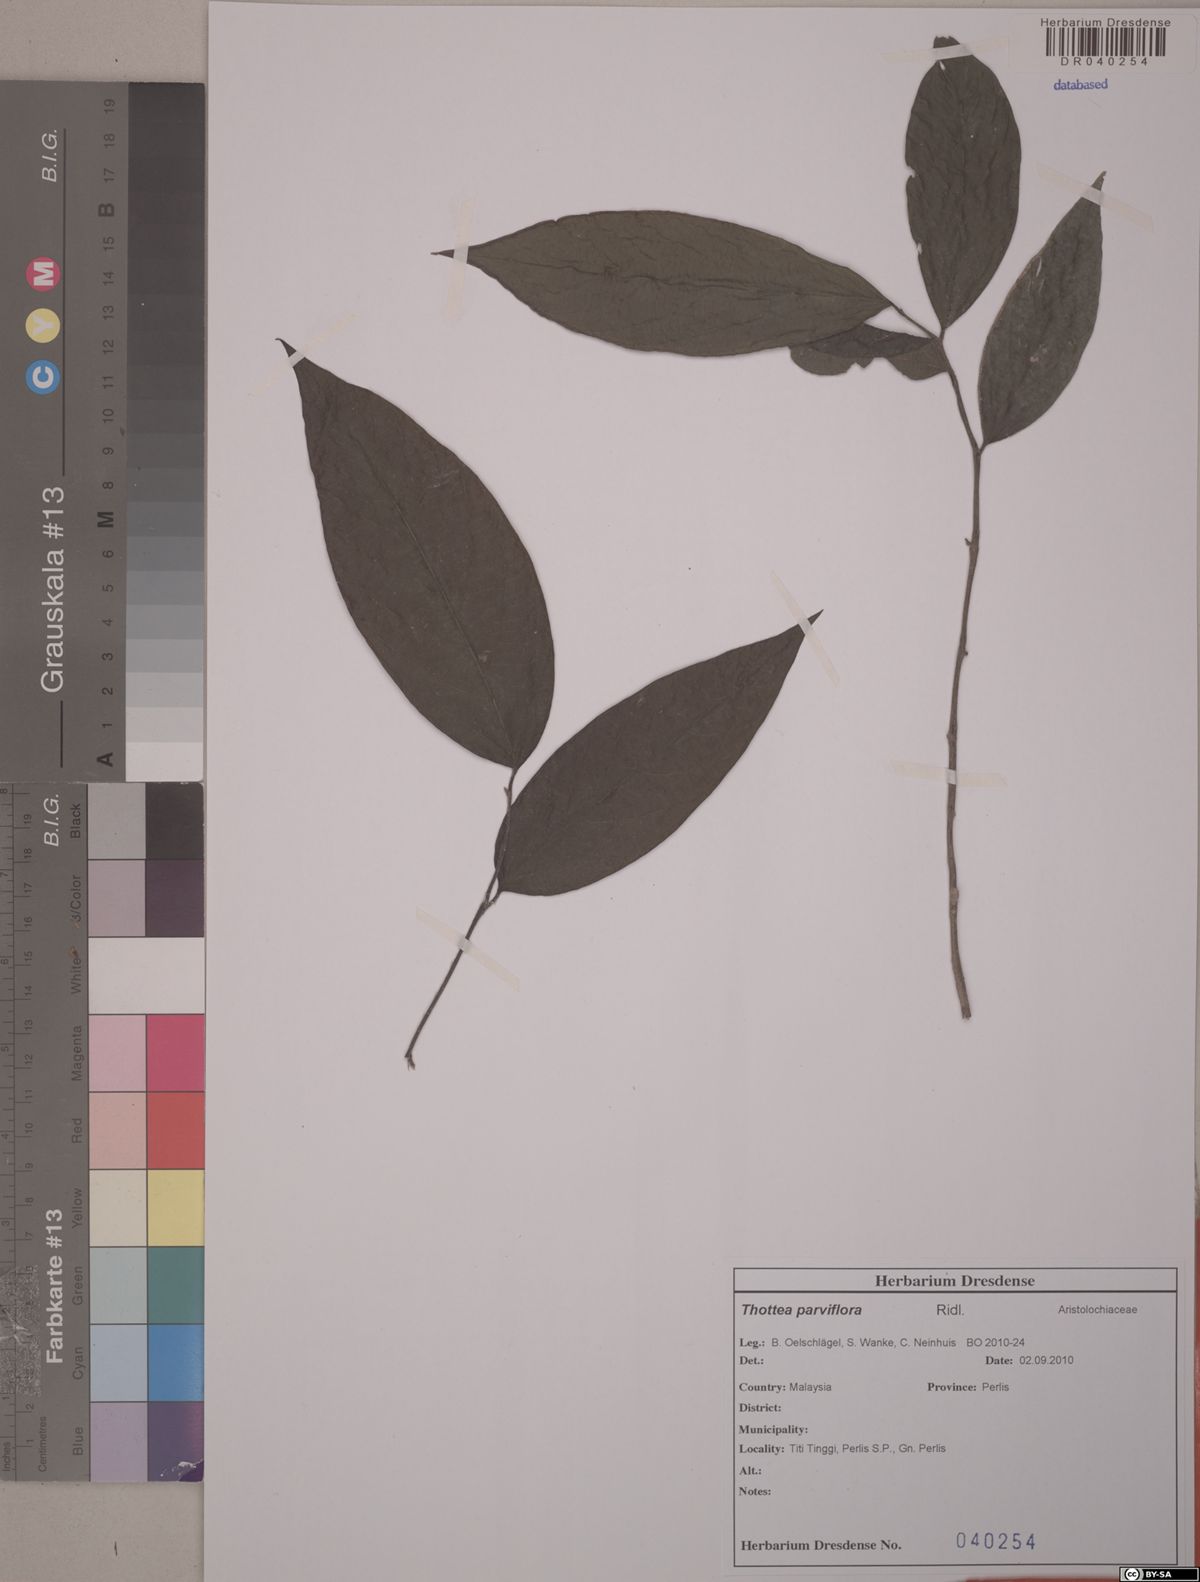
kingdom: Plantae
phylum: Tracheophyta
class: Magnoliopsida
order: Piperales
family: Aristolochiaceae
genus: Thottea
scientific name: Thottea parviflora
